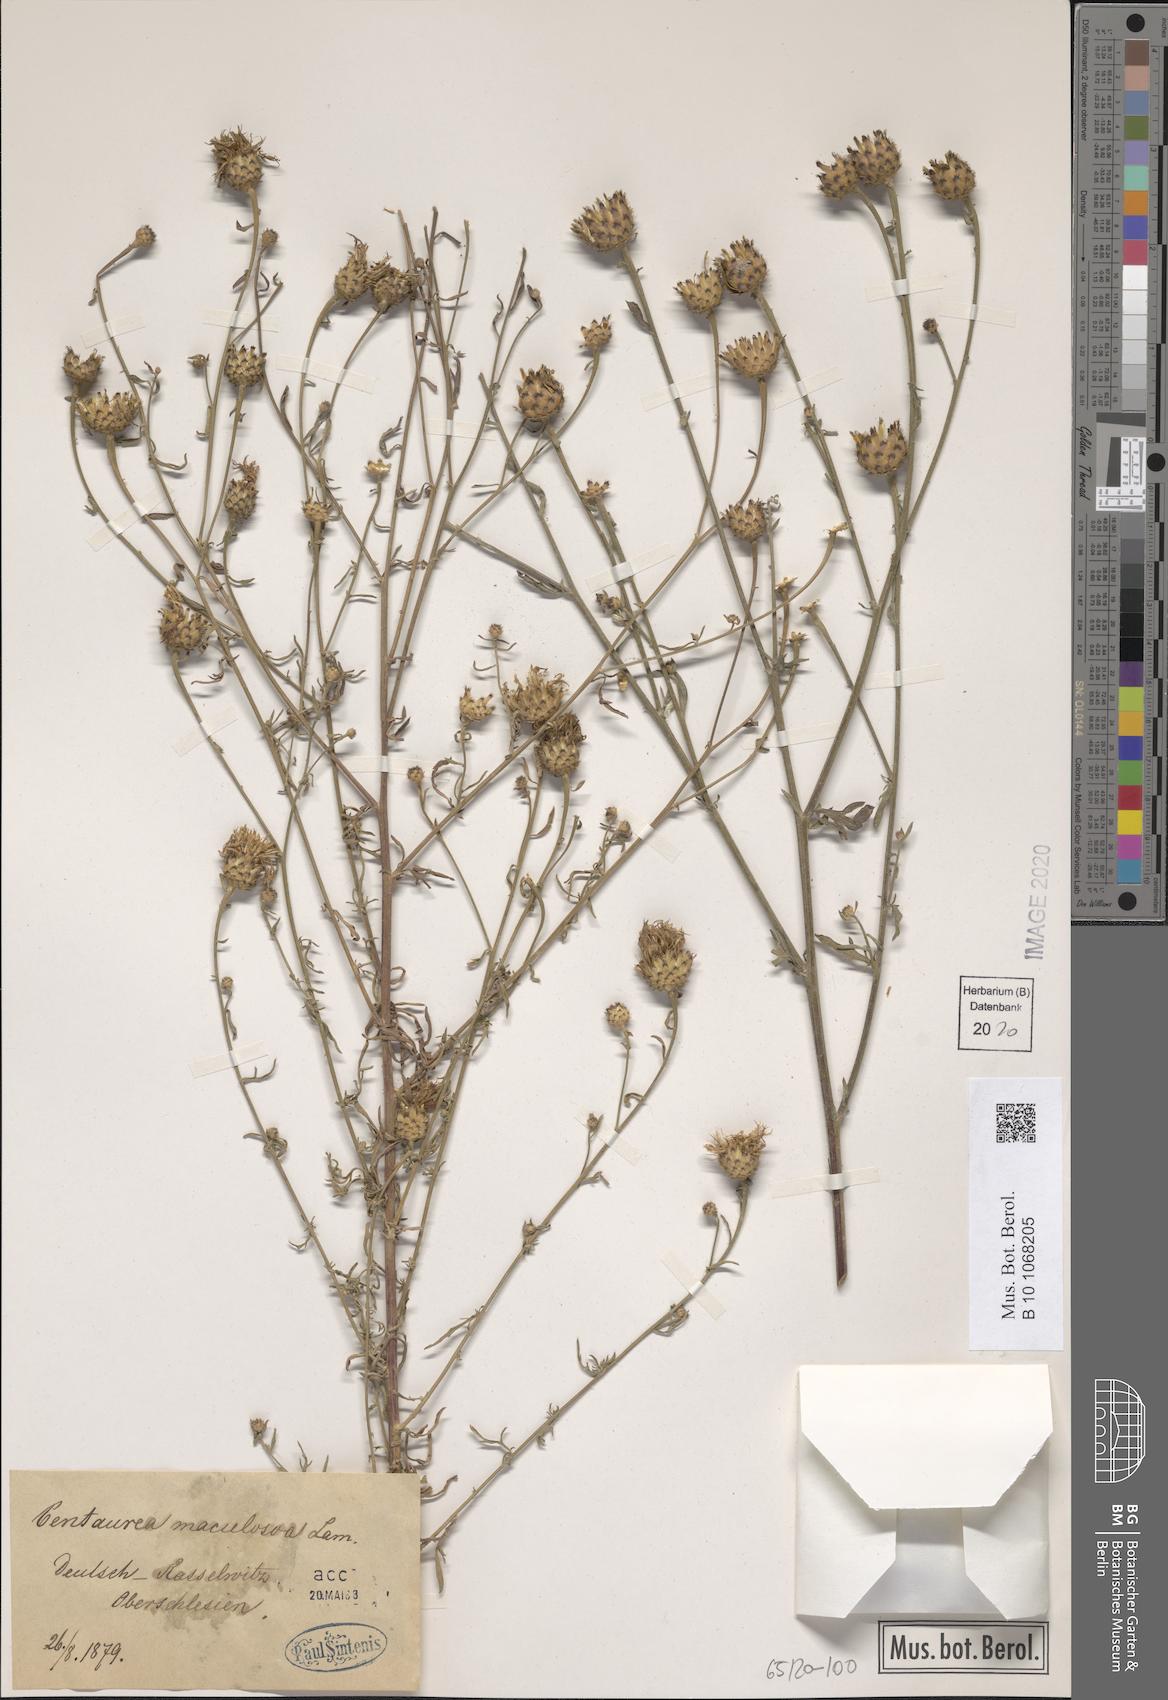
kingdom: Plantae
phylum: Tracheophyta
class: Magnoliopsida
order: Asterales
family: Asteraceae
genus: Centaurea
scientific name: Centaurea stoebe
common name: Spotted knapweed
